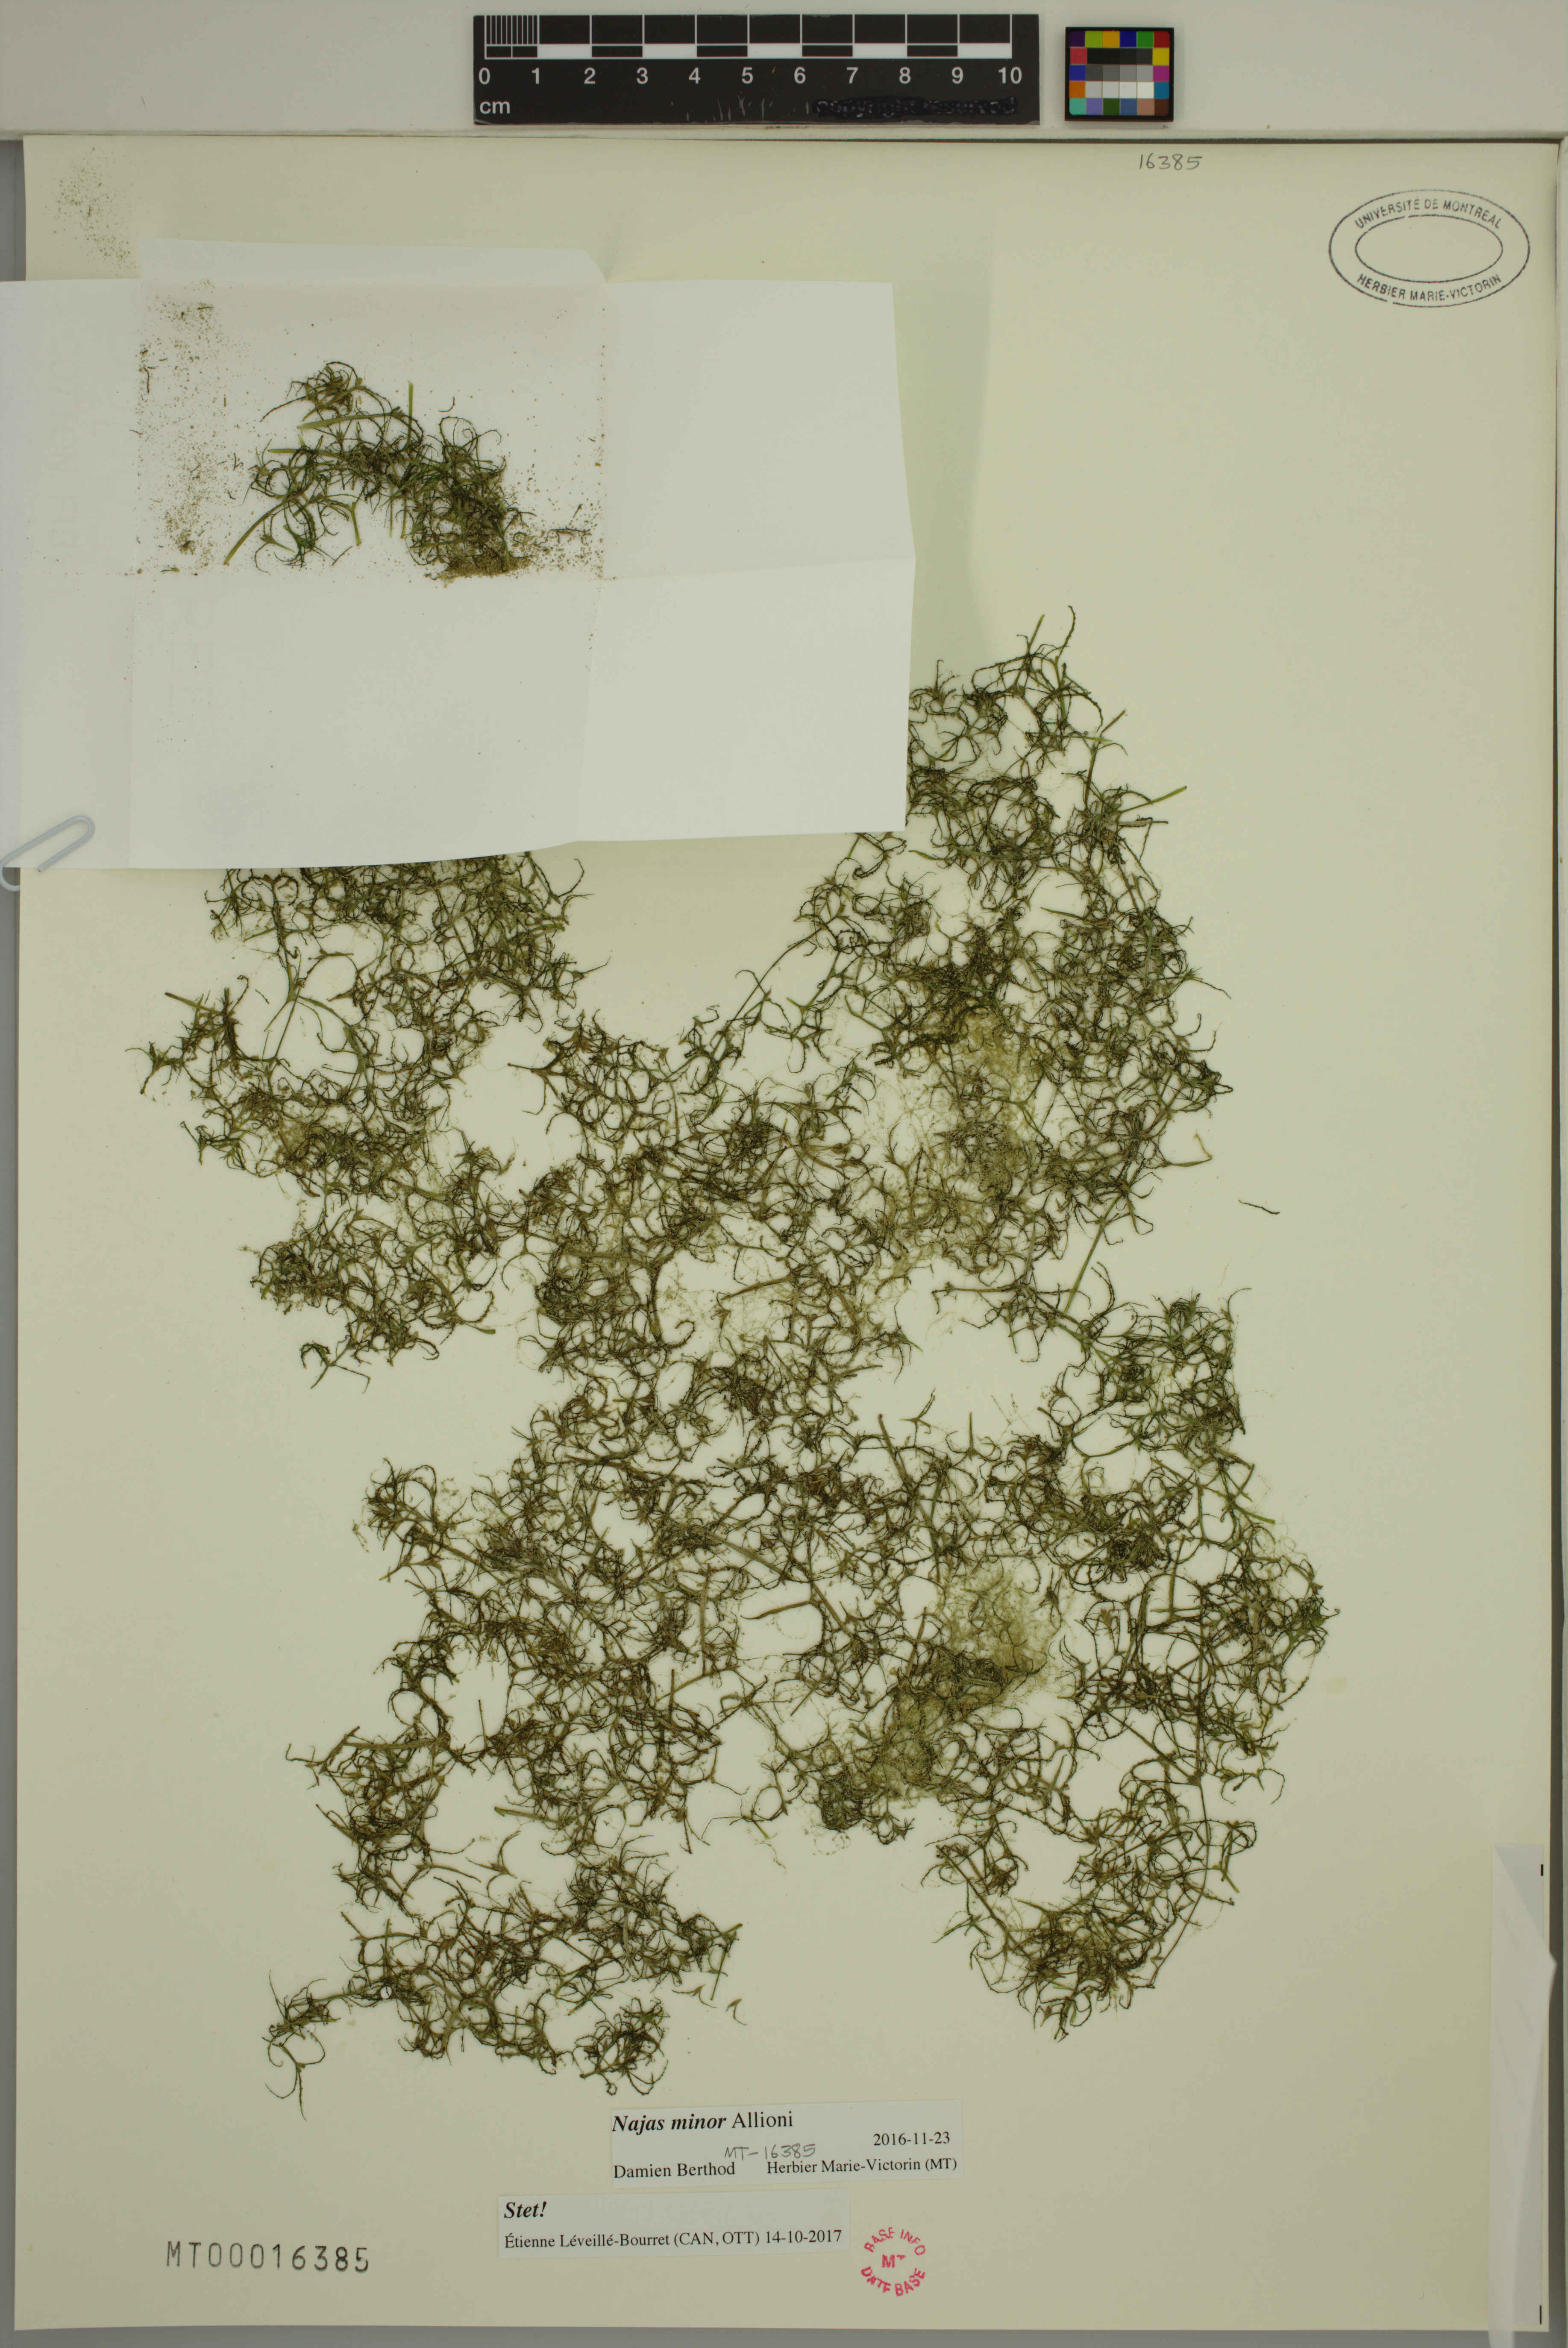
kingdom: Plantae
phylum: Tracheophyta
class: Liliopsida
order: Alismatales
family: Hydrocharitaceae
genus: Najas
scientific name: Najas minor
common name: Brittle naiad
